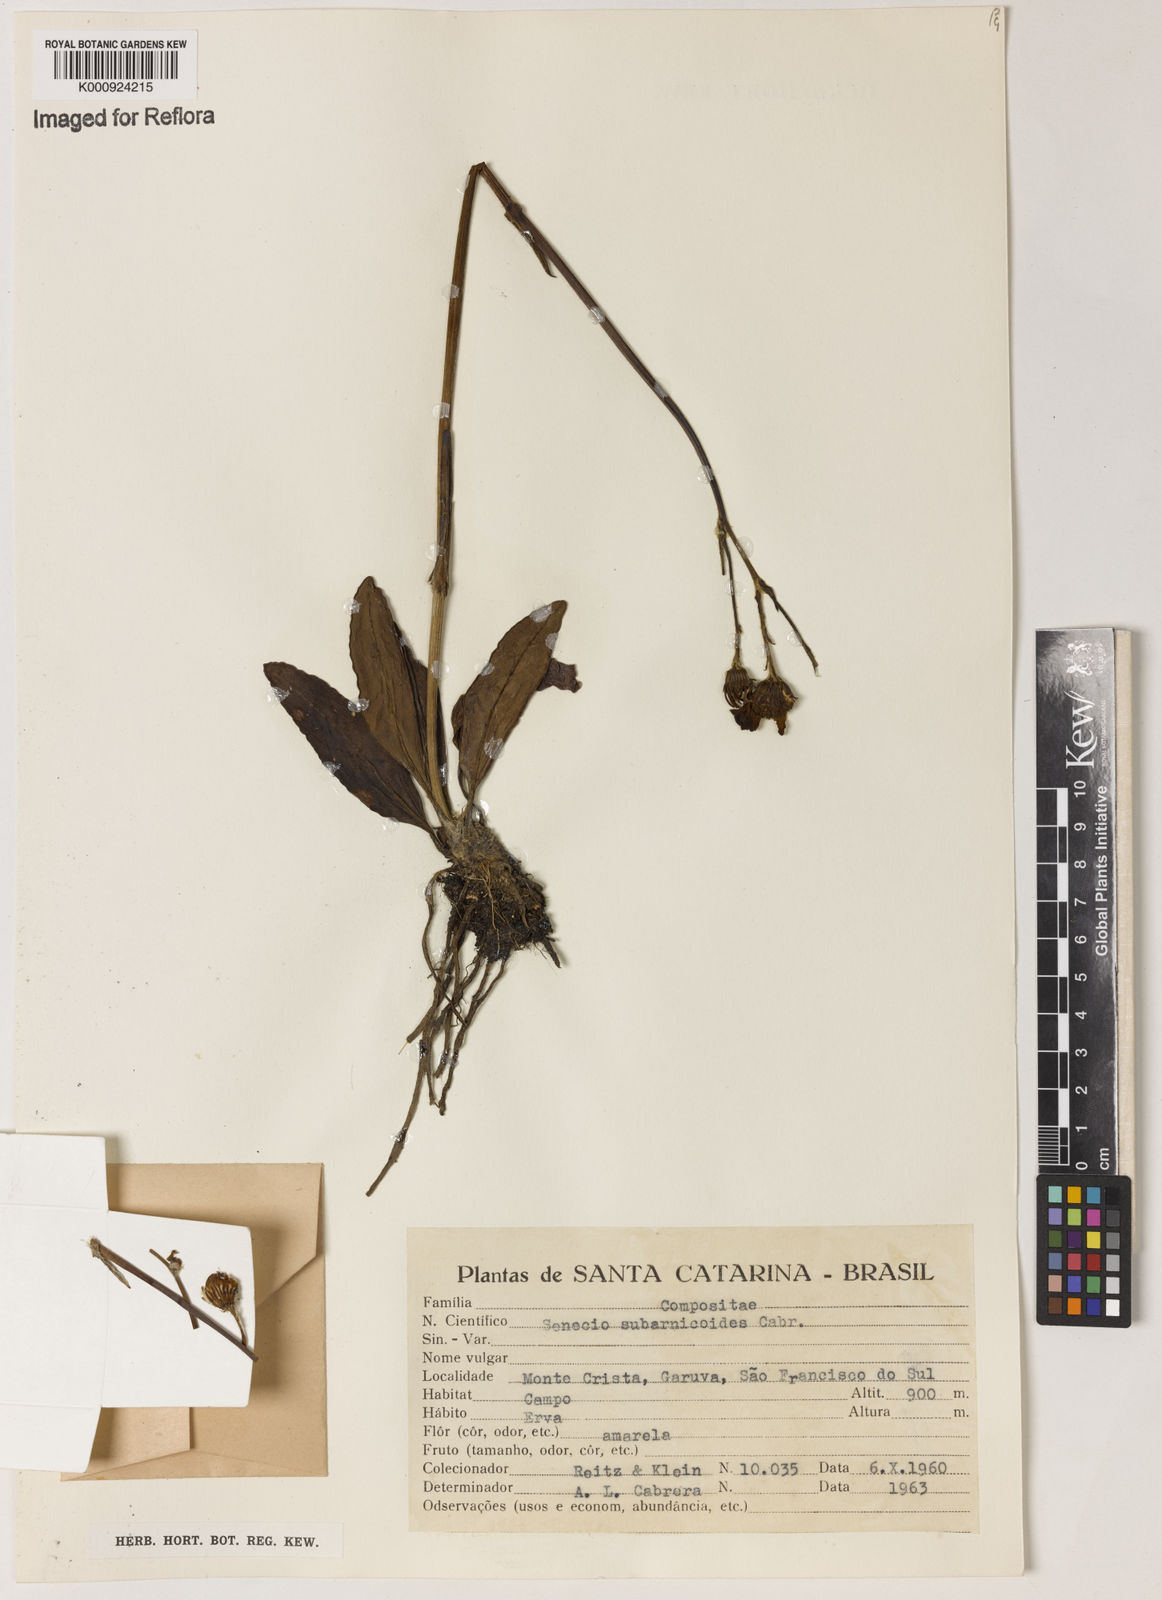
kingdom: Plantae
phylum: Tracheophyta
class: Magnoliopsida
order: Asterales
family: Asteraceae
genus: Senecio
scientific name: Senecio subarnicoides
